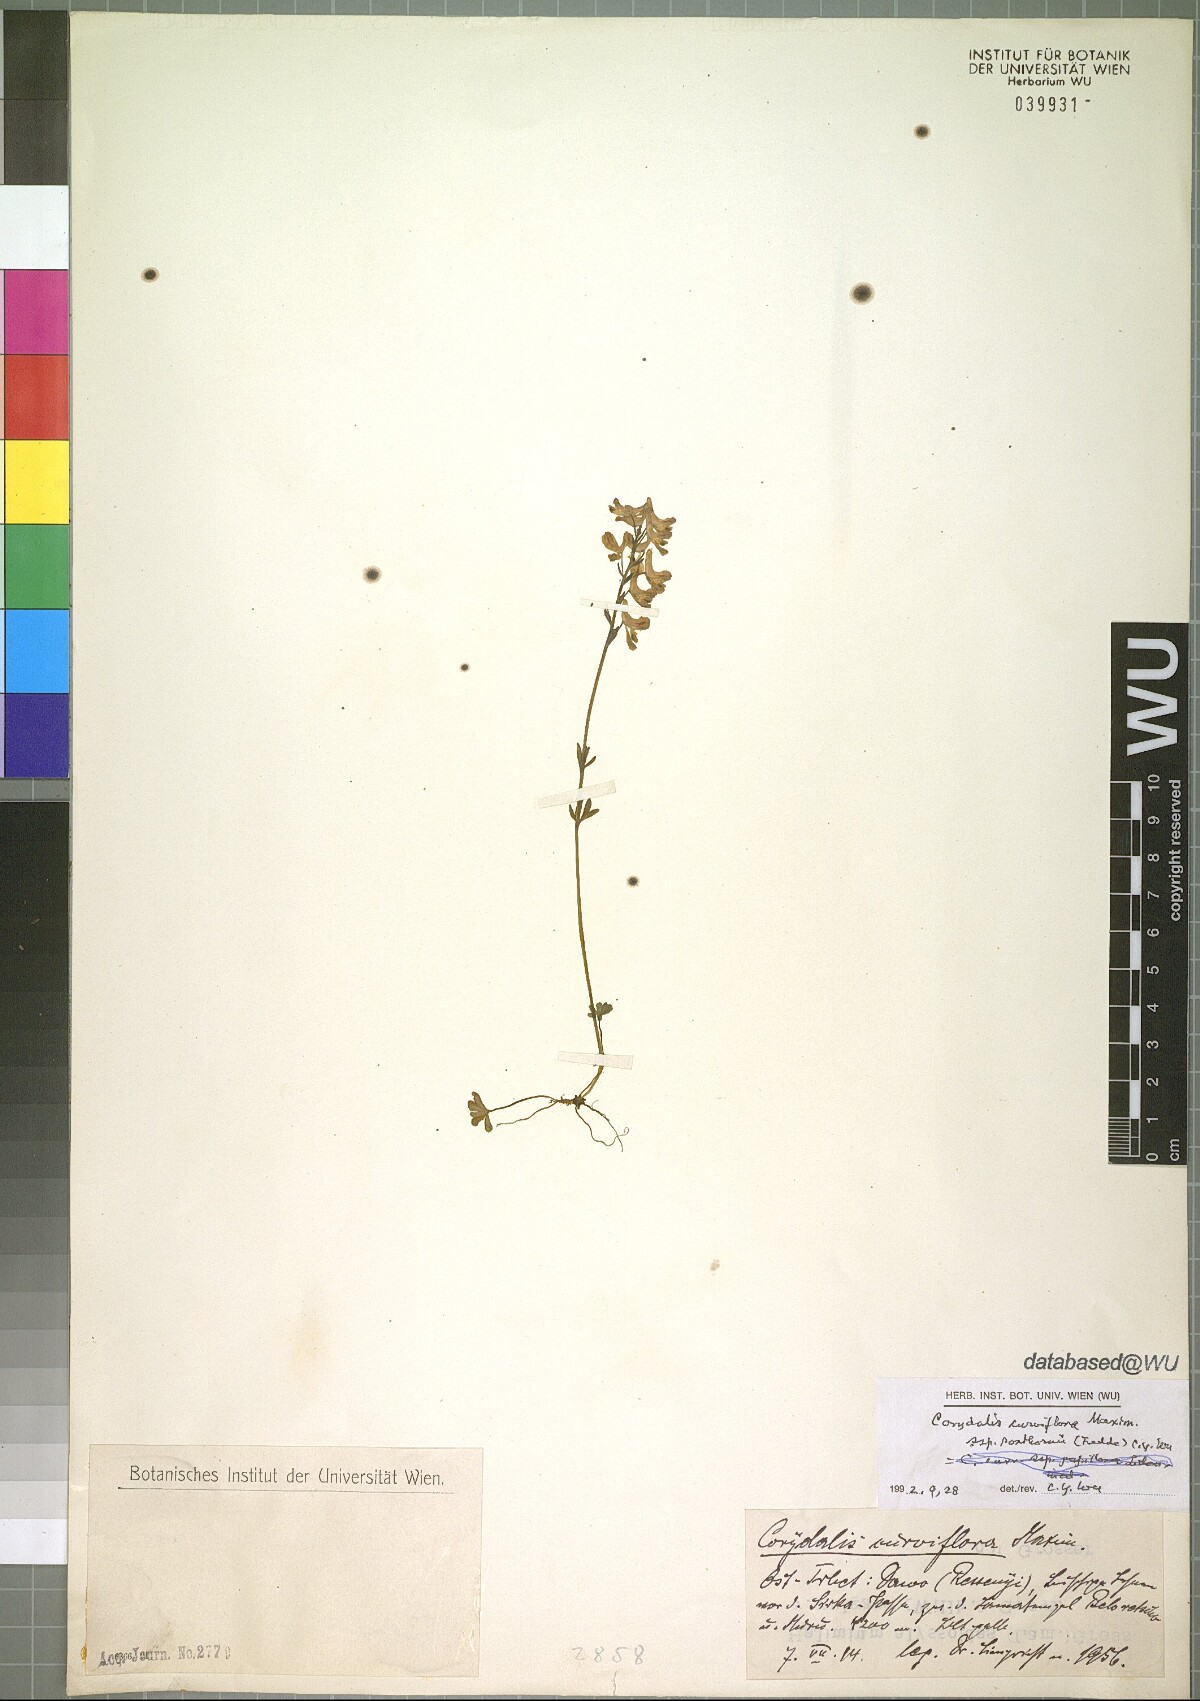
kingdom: Plantae
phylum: Tracheophyta
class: Magnoliopsida
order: Ranunculales
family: Papaveraceae
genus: Corydalis
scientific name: Corydalis curviflora
